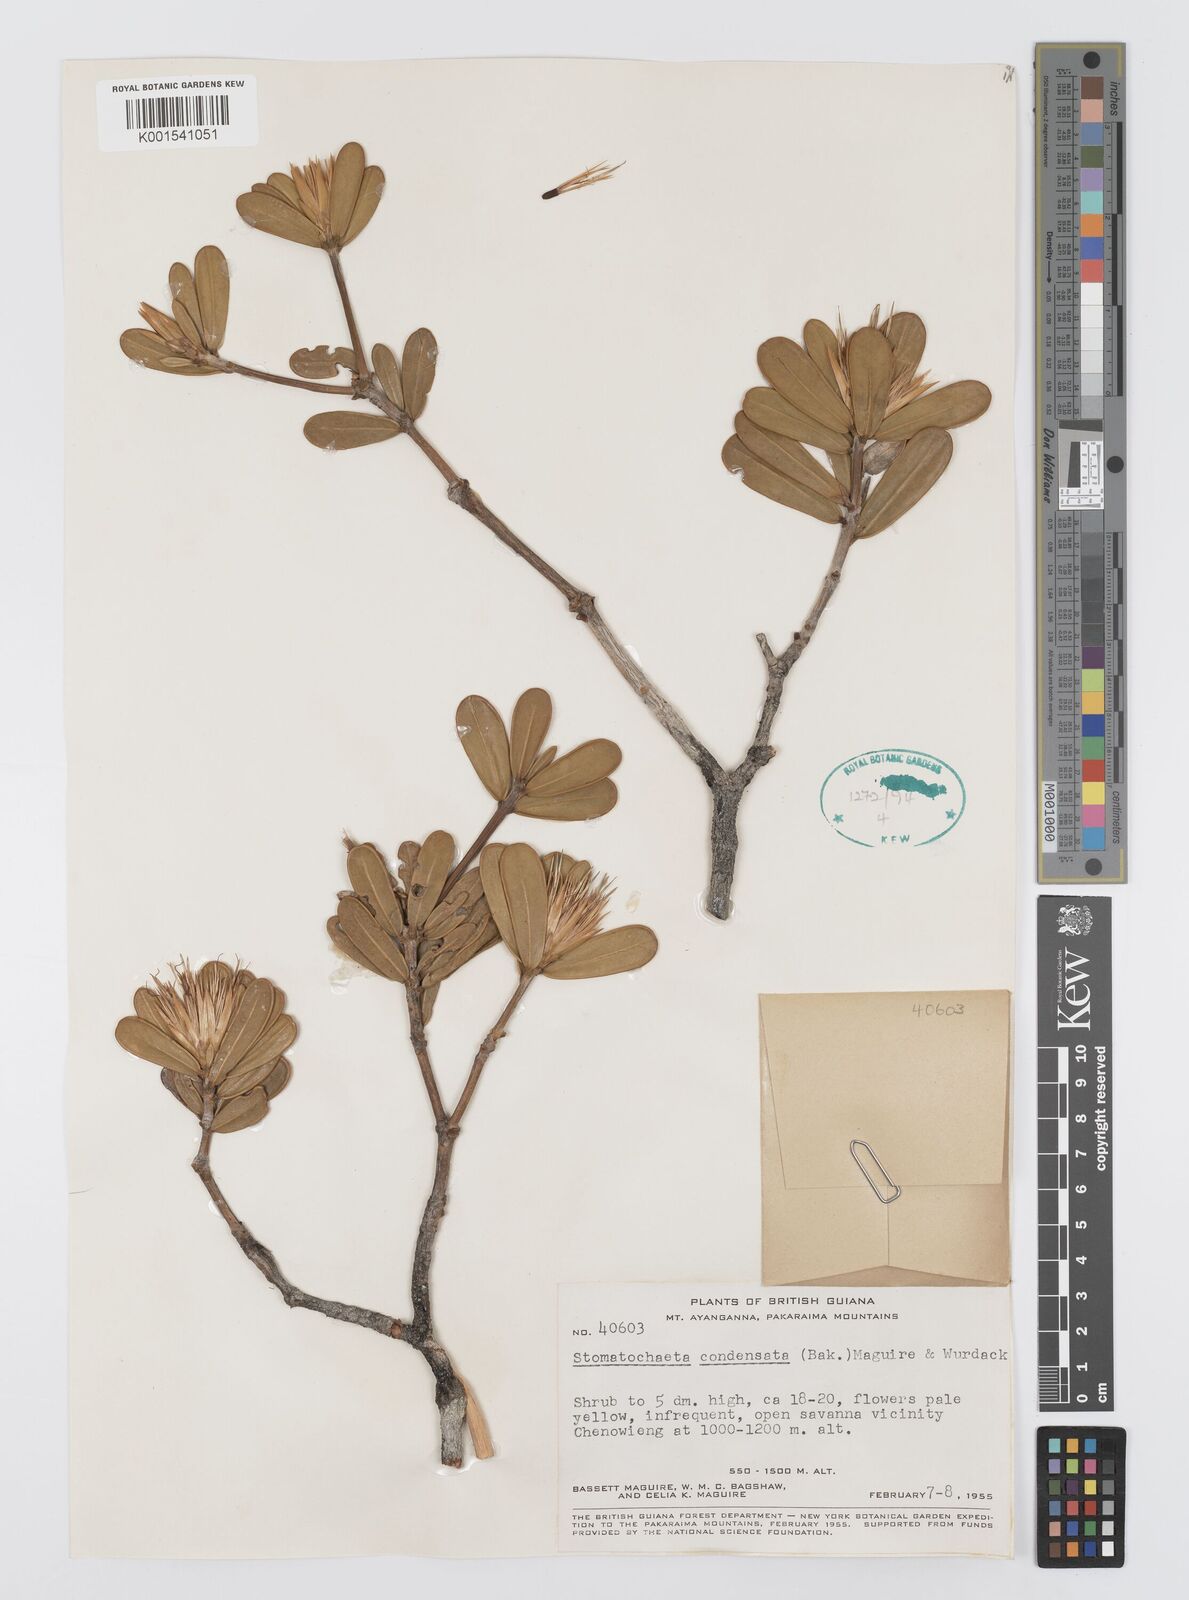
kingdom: Plantae
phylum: Tracheophyta
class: Magnoliopsida
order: Asterales
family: Asteraceae
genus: Stomatochaeta
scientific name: Stomatochaeta condensata
